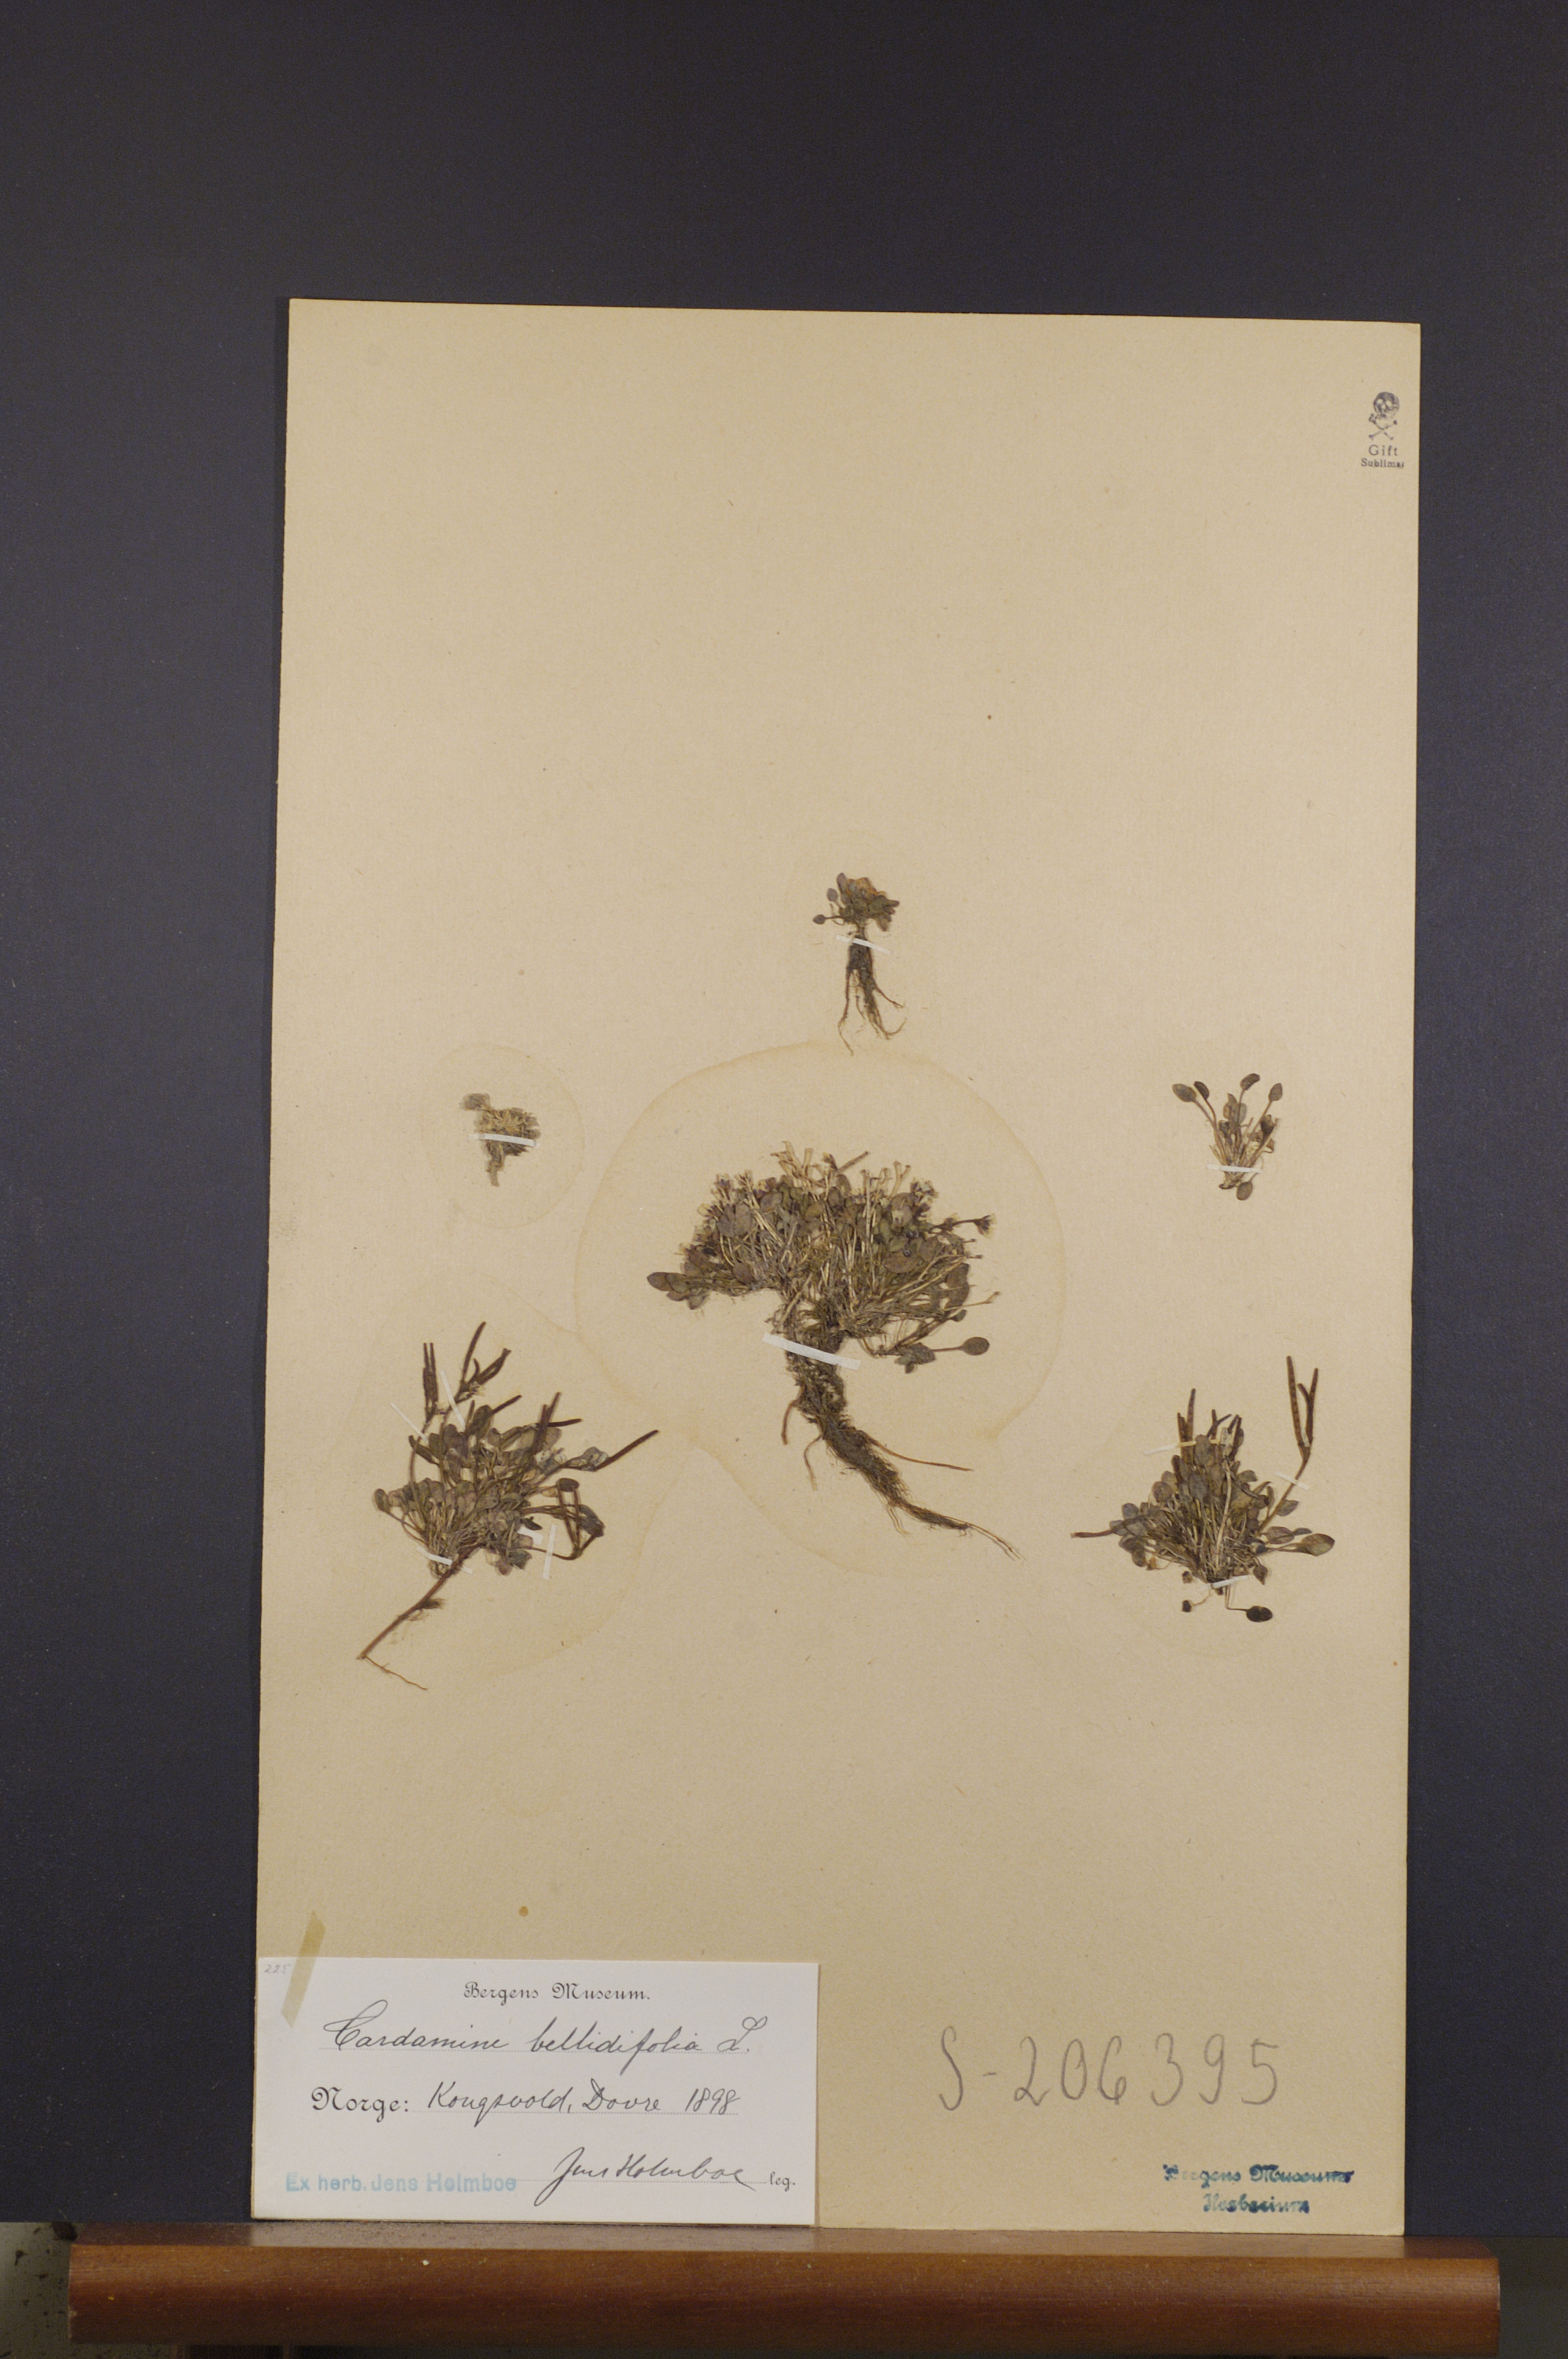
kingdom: Plantae
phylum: Tracheophyta
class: Magnoliopsida
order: Brassicales
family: Brassicaceae
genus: Cardamine
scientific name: Cardamine bellidifolia
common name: Alpine bittercress
